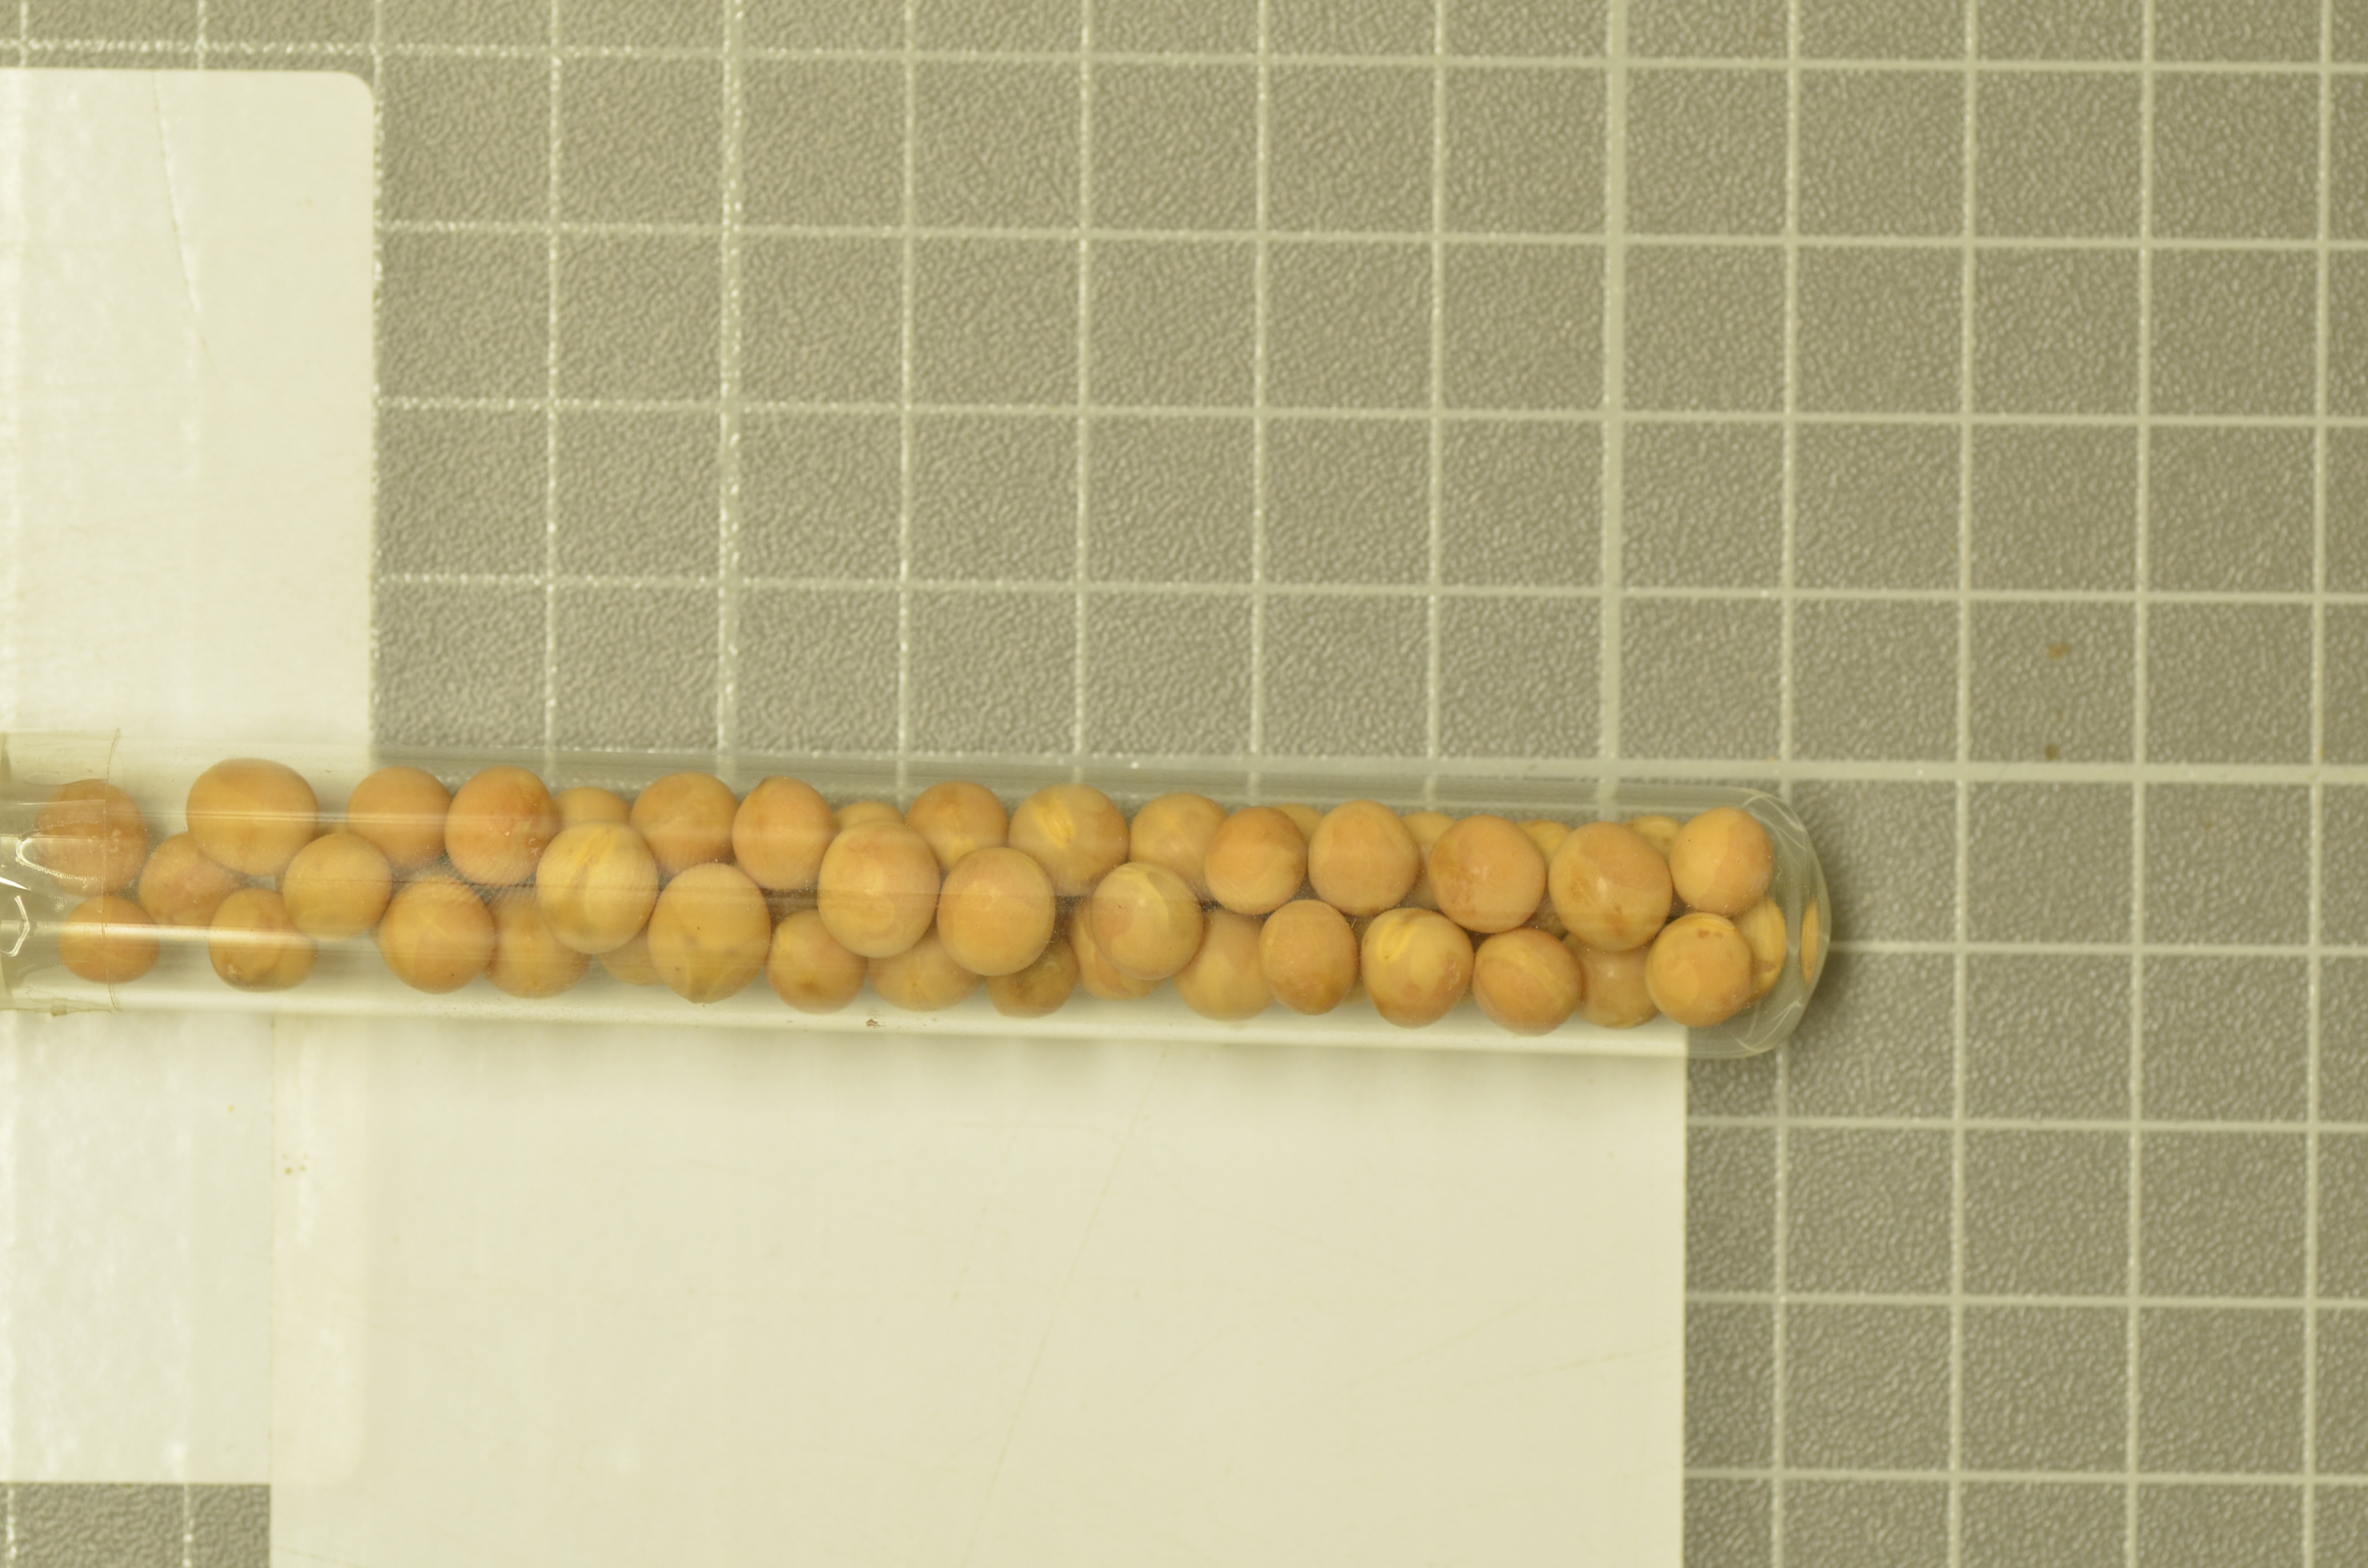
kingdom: Plantae
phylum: Tracheophyta
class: Magnoliopsida
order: Fabales
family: Fabaceae
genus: Lathyrus
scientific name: Lathyrus oleraceus
